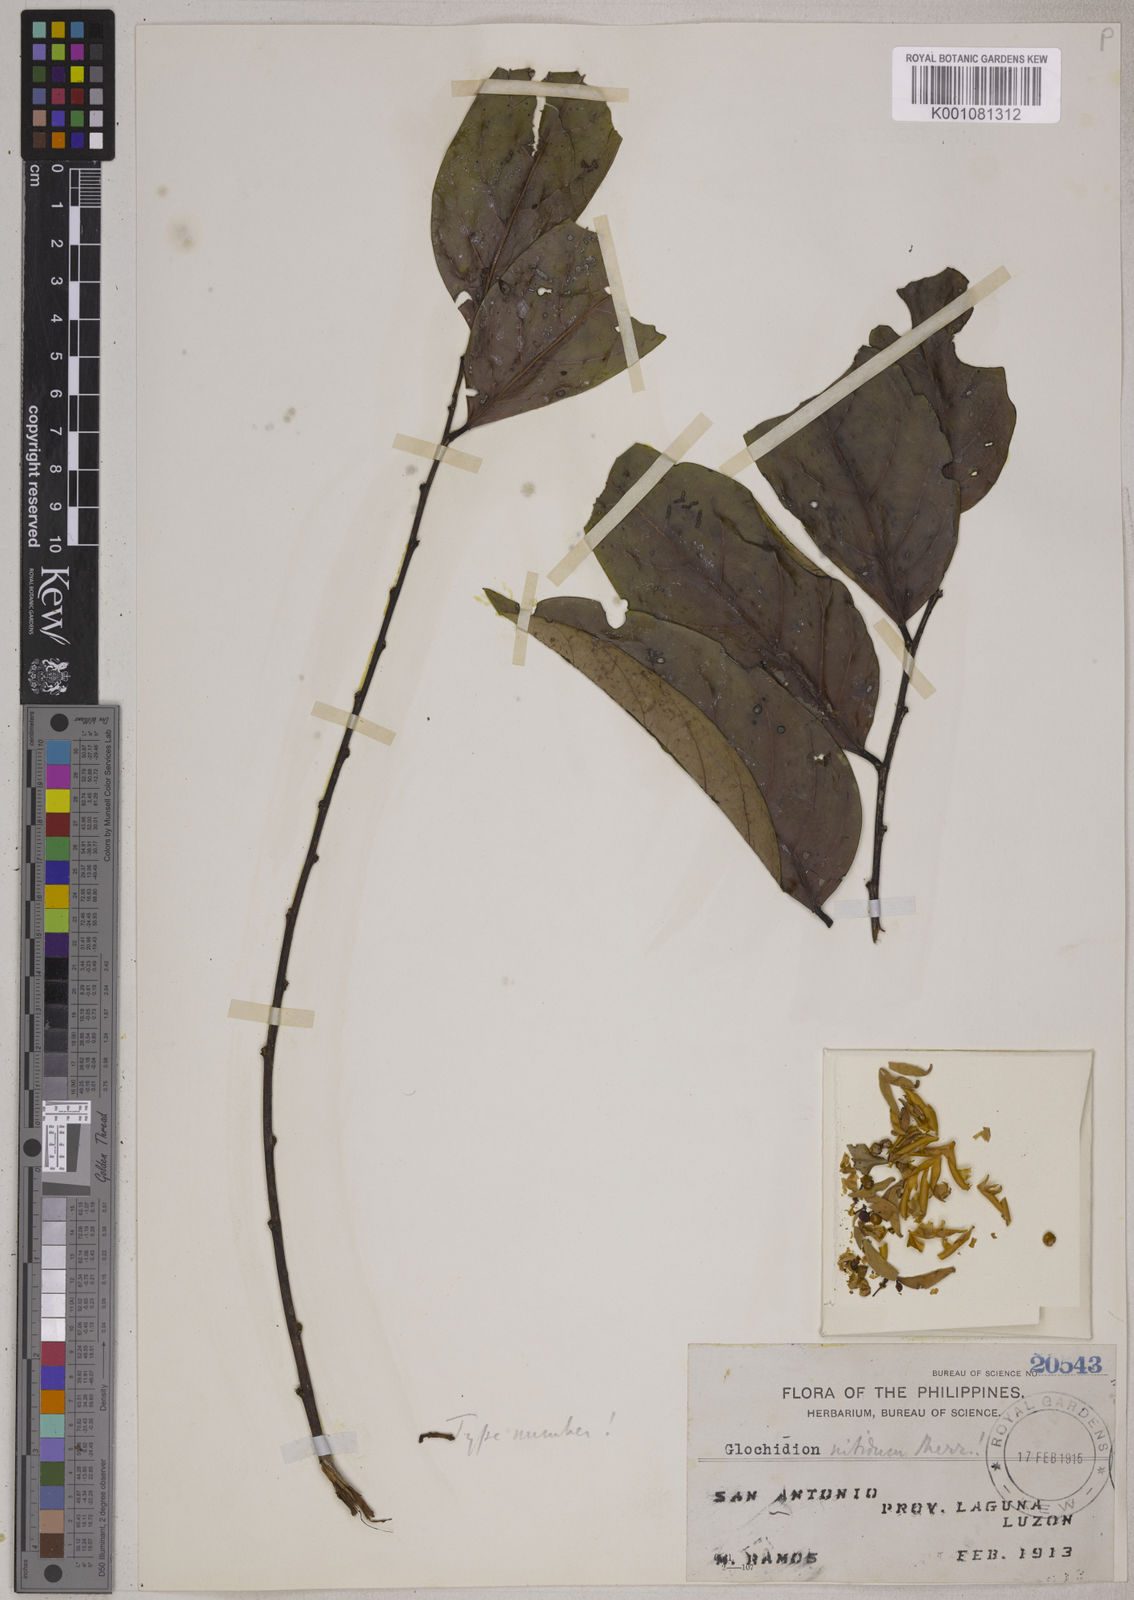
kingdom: Plantae
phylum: Tracheophyta
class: Magnoliopsida
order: Malpighiales
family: Phyllanthaceae
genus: Glochidion
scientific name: Glochidion subfalcatum
